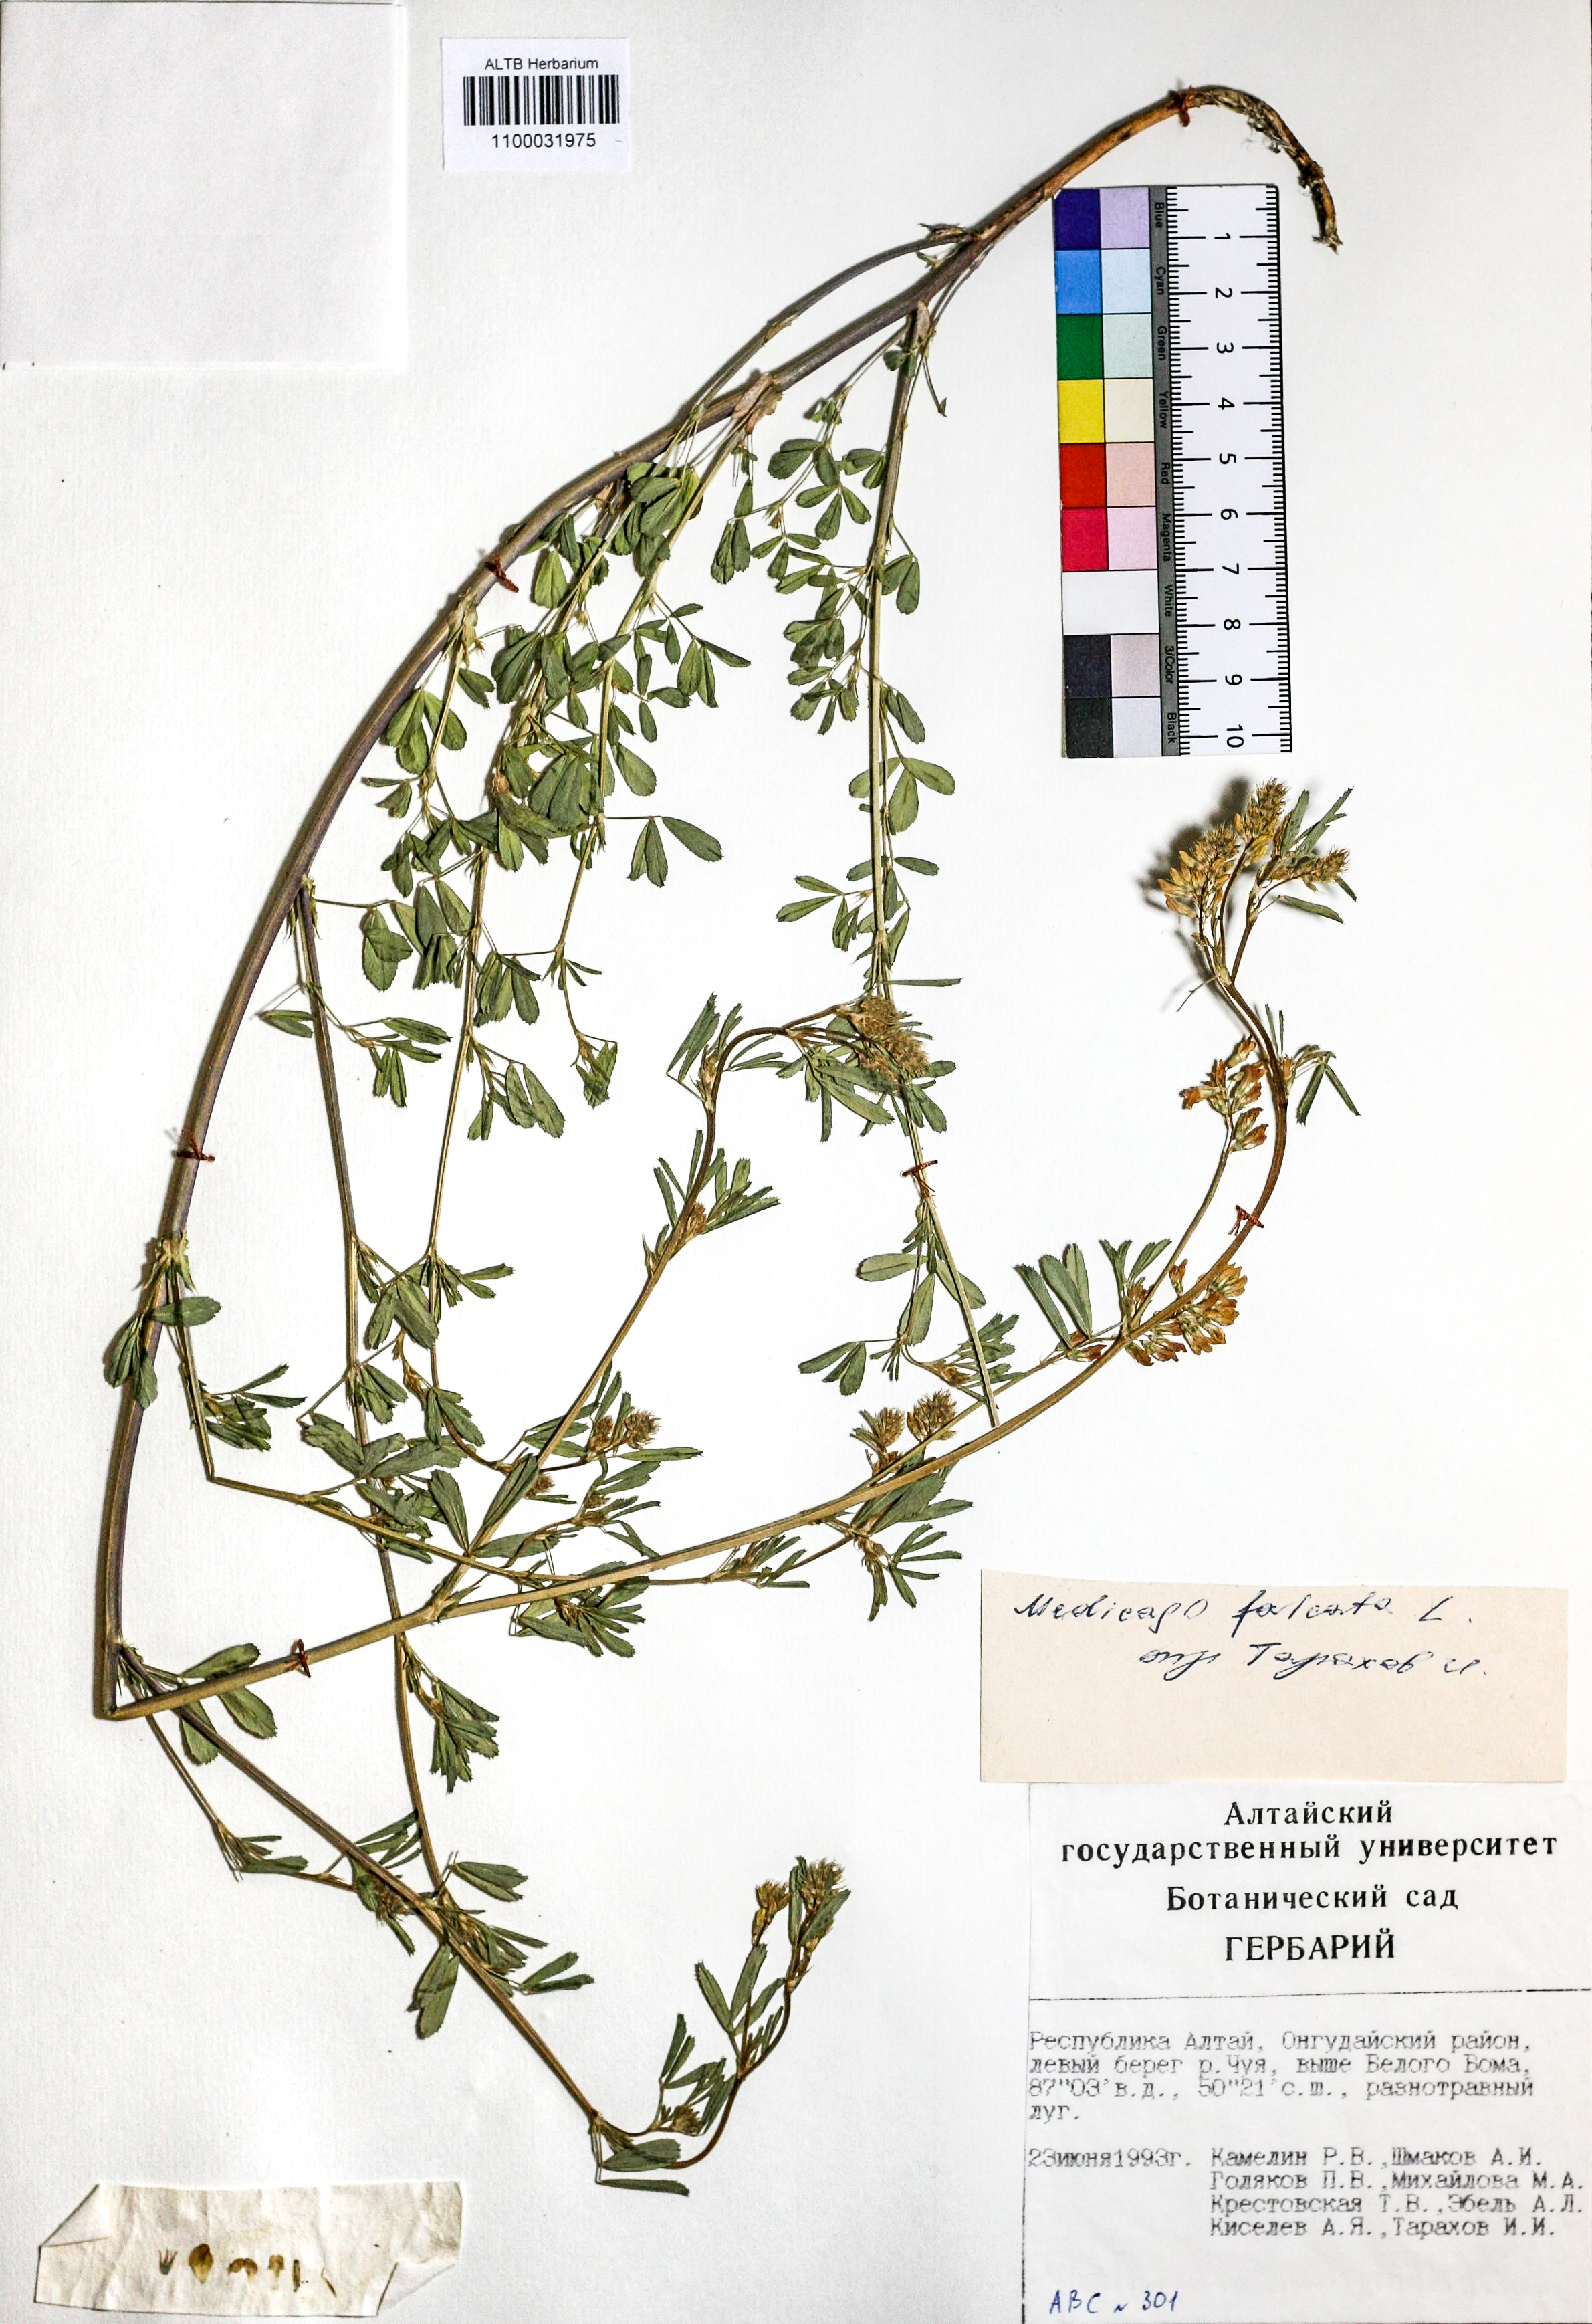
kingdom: Plantae
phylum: Tracheophyta
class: Magnoliopsida
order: Fabales
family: Fabaceae
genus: Medicago
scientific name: Medicago falcata
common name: Sickle medick
